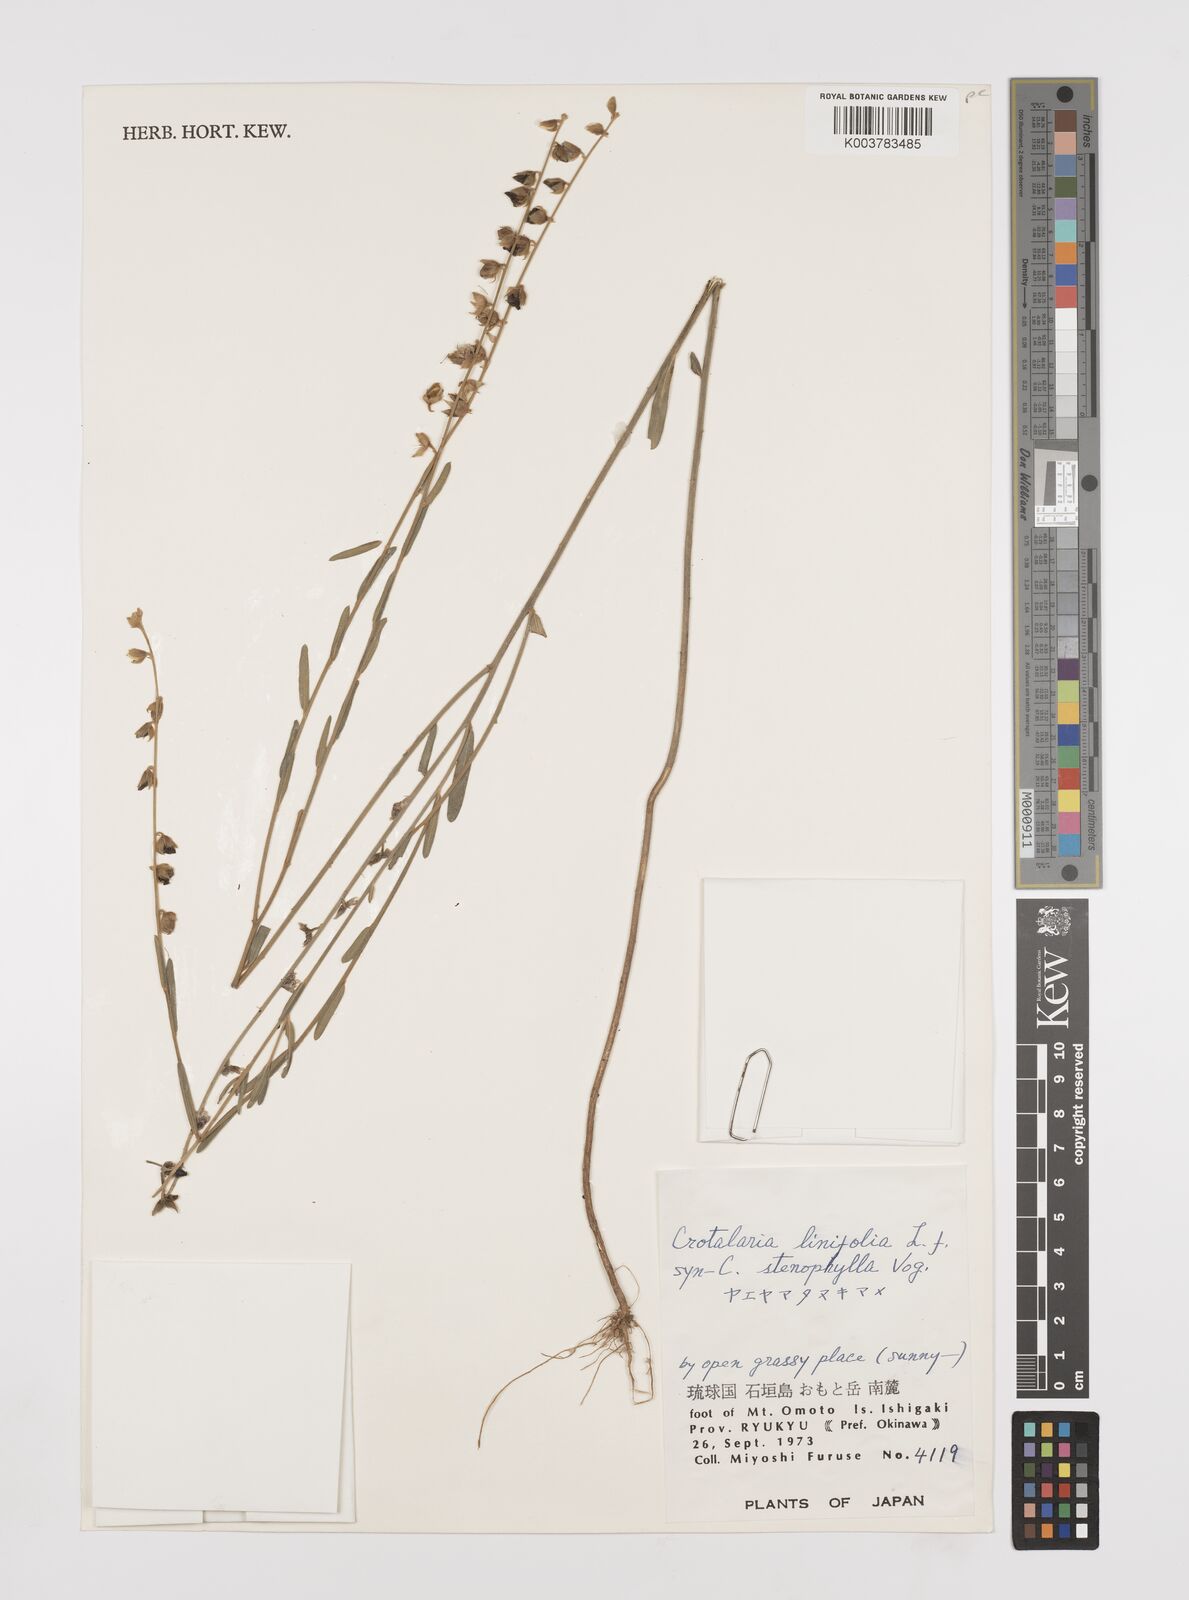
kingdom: Plantae
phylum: Tracheophyta
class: Magnoliopsida
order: Fabales
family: Fabaceae
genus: Crotalaria
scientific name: Crotalaria linifolia
